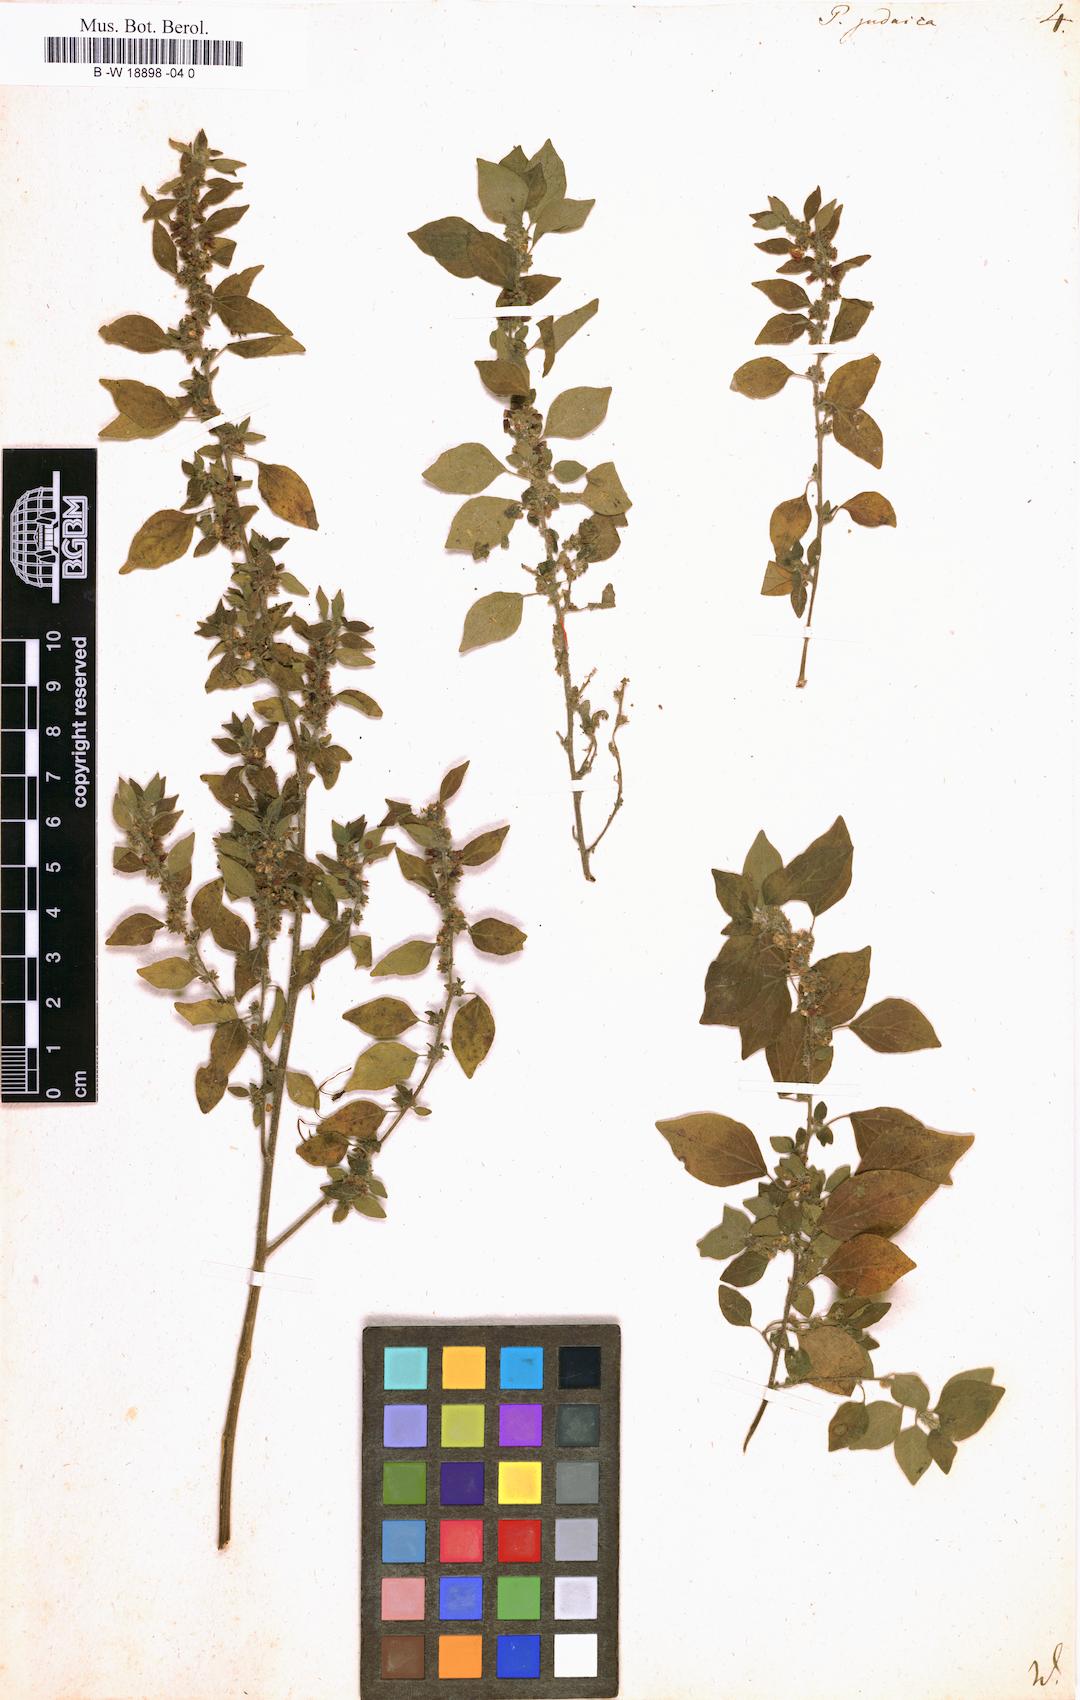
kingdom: Plantae
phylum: Tracheophyta
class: Magnoliopsida
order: Rosales
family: Urticaceae
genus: Parietaria
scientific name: Parietaria judaica
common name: Pellitory-of-the-wall
